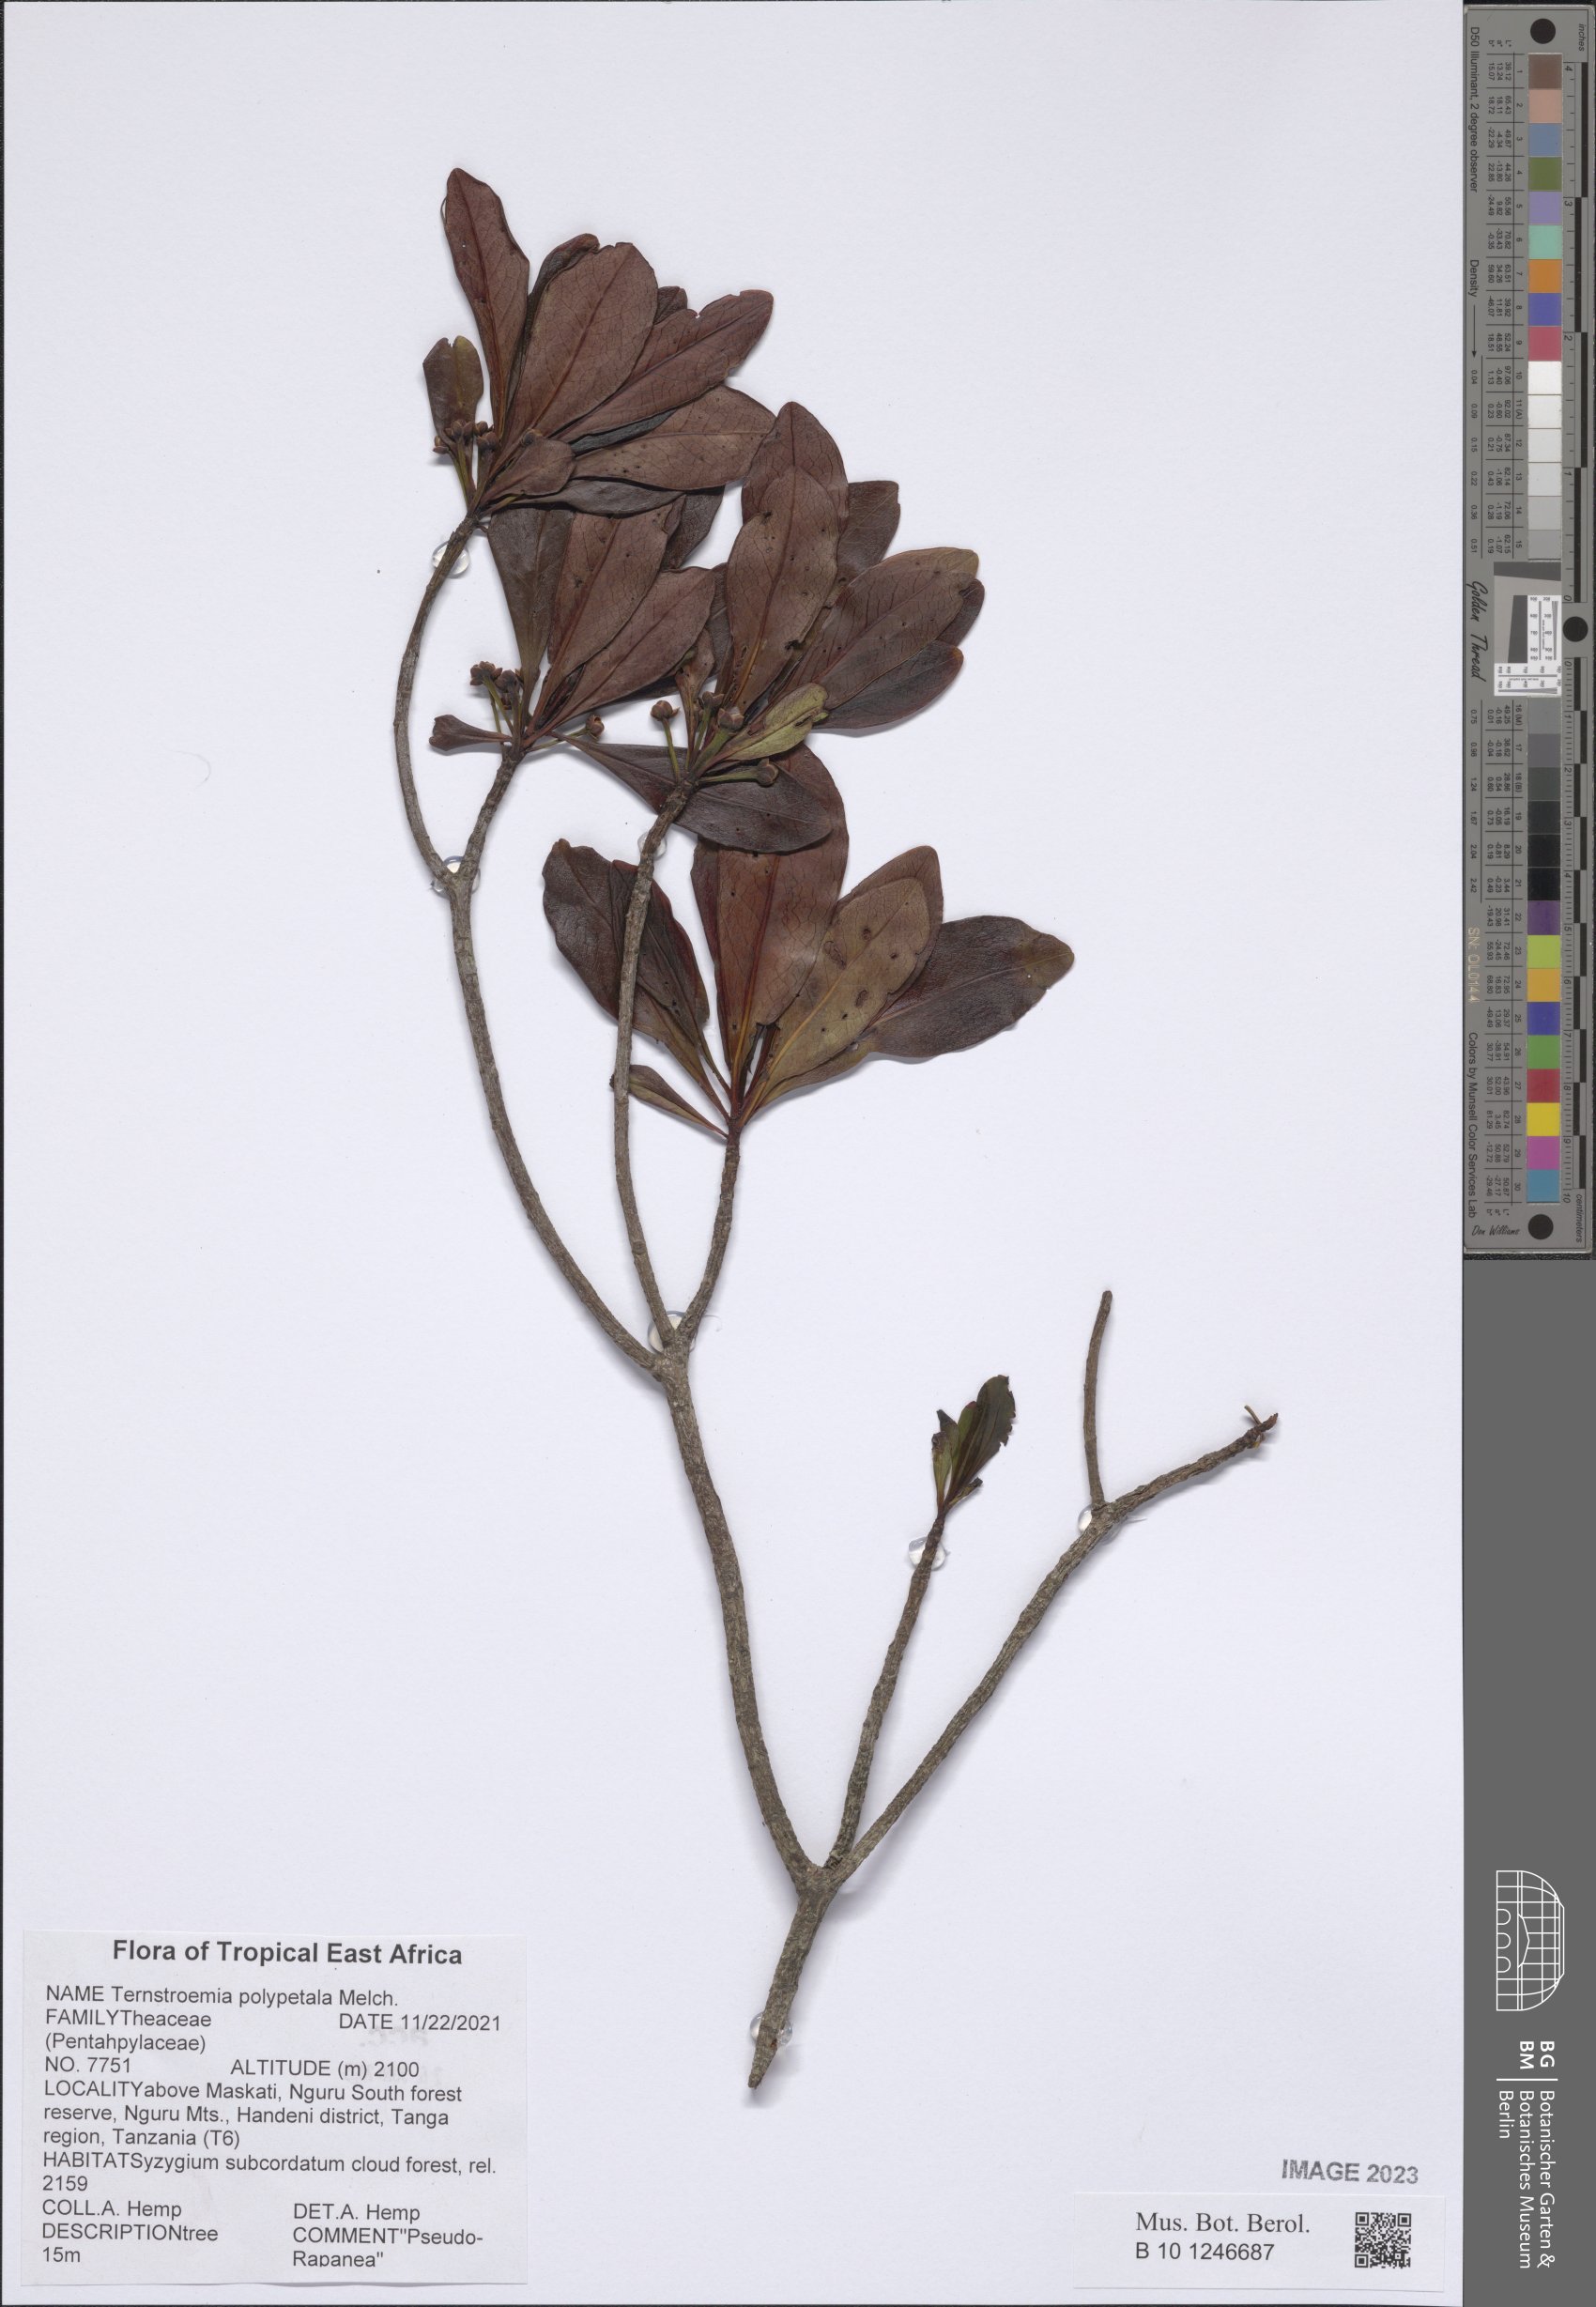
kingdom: Plantae
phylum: Tracheophyta
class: Magnoliopsida
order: Ericales
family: Pentaphylacaceae
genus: Ternstroemia
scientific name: Ternstroemia polypetala
